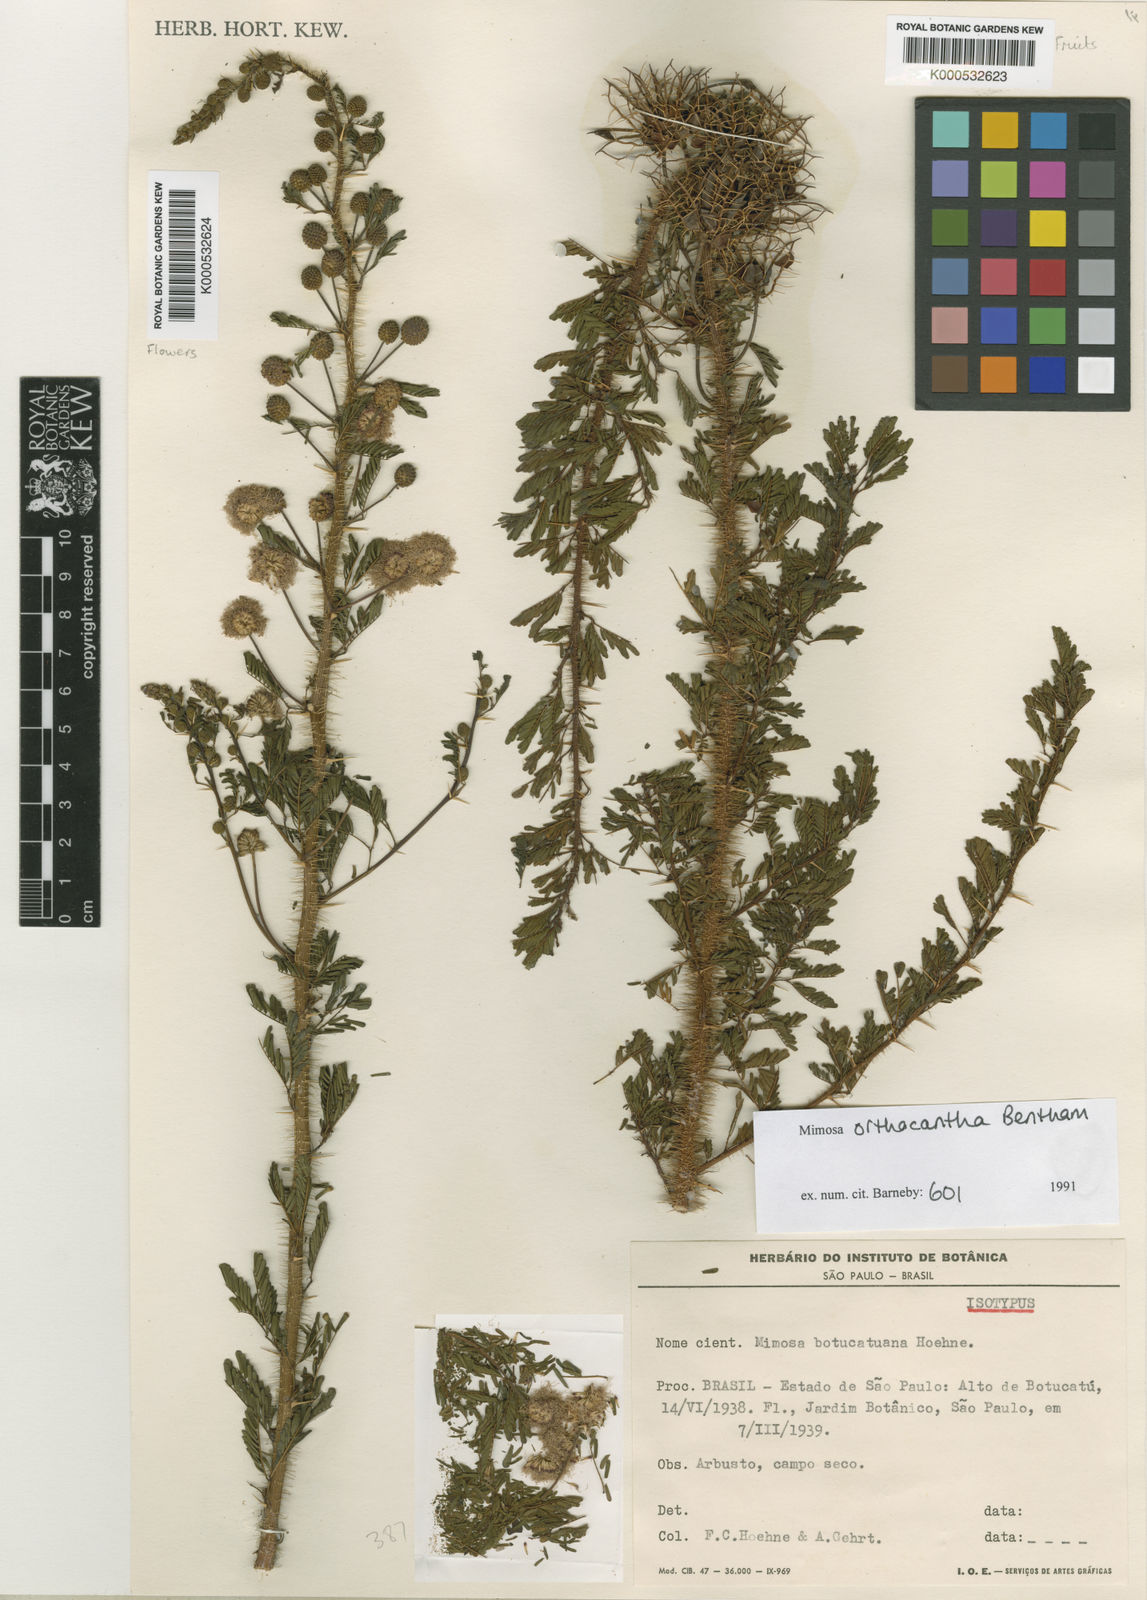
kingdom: Plantae
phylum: Tracheophyta
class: Magnoliopsida
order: Fabales
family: Fabaceae
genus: Mimosa
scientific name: Mimosa orthacantha
